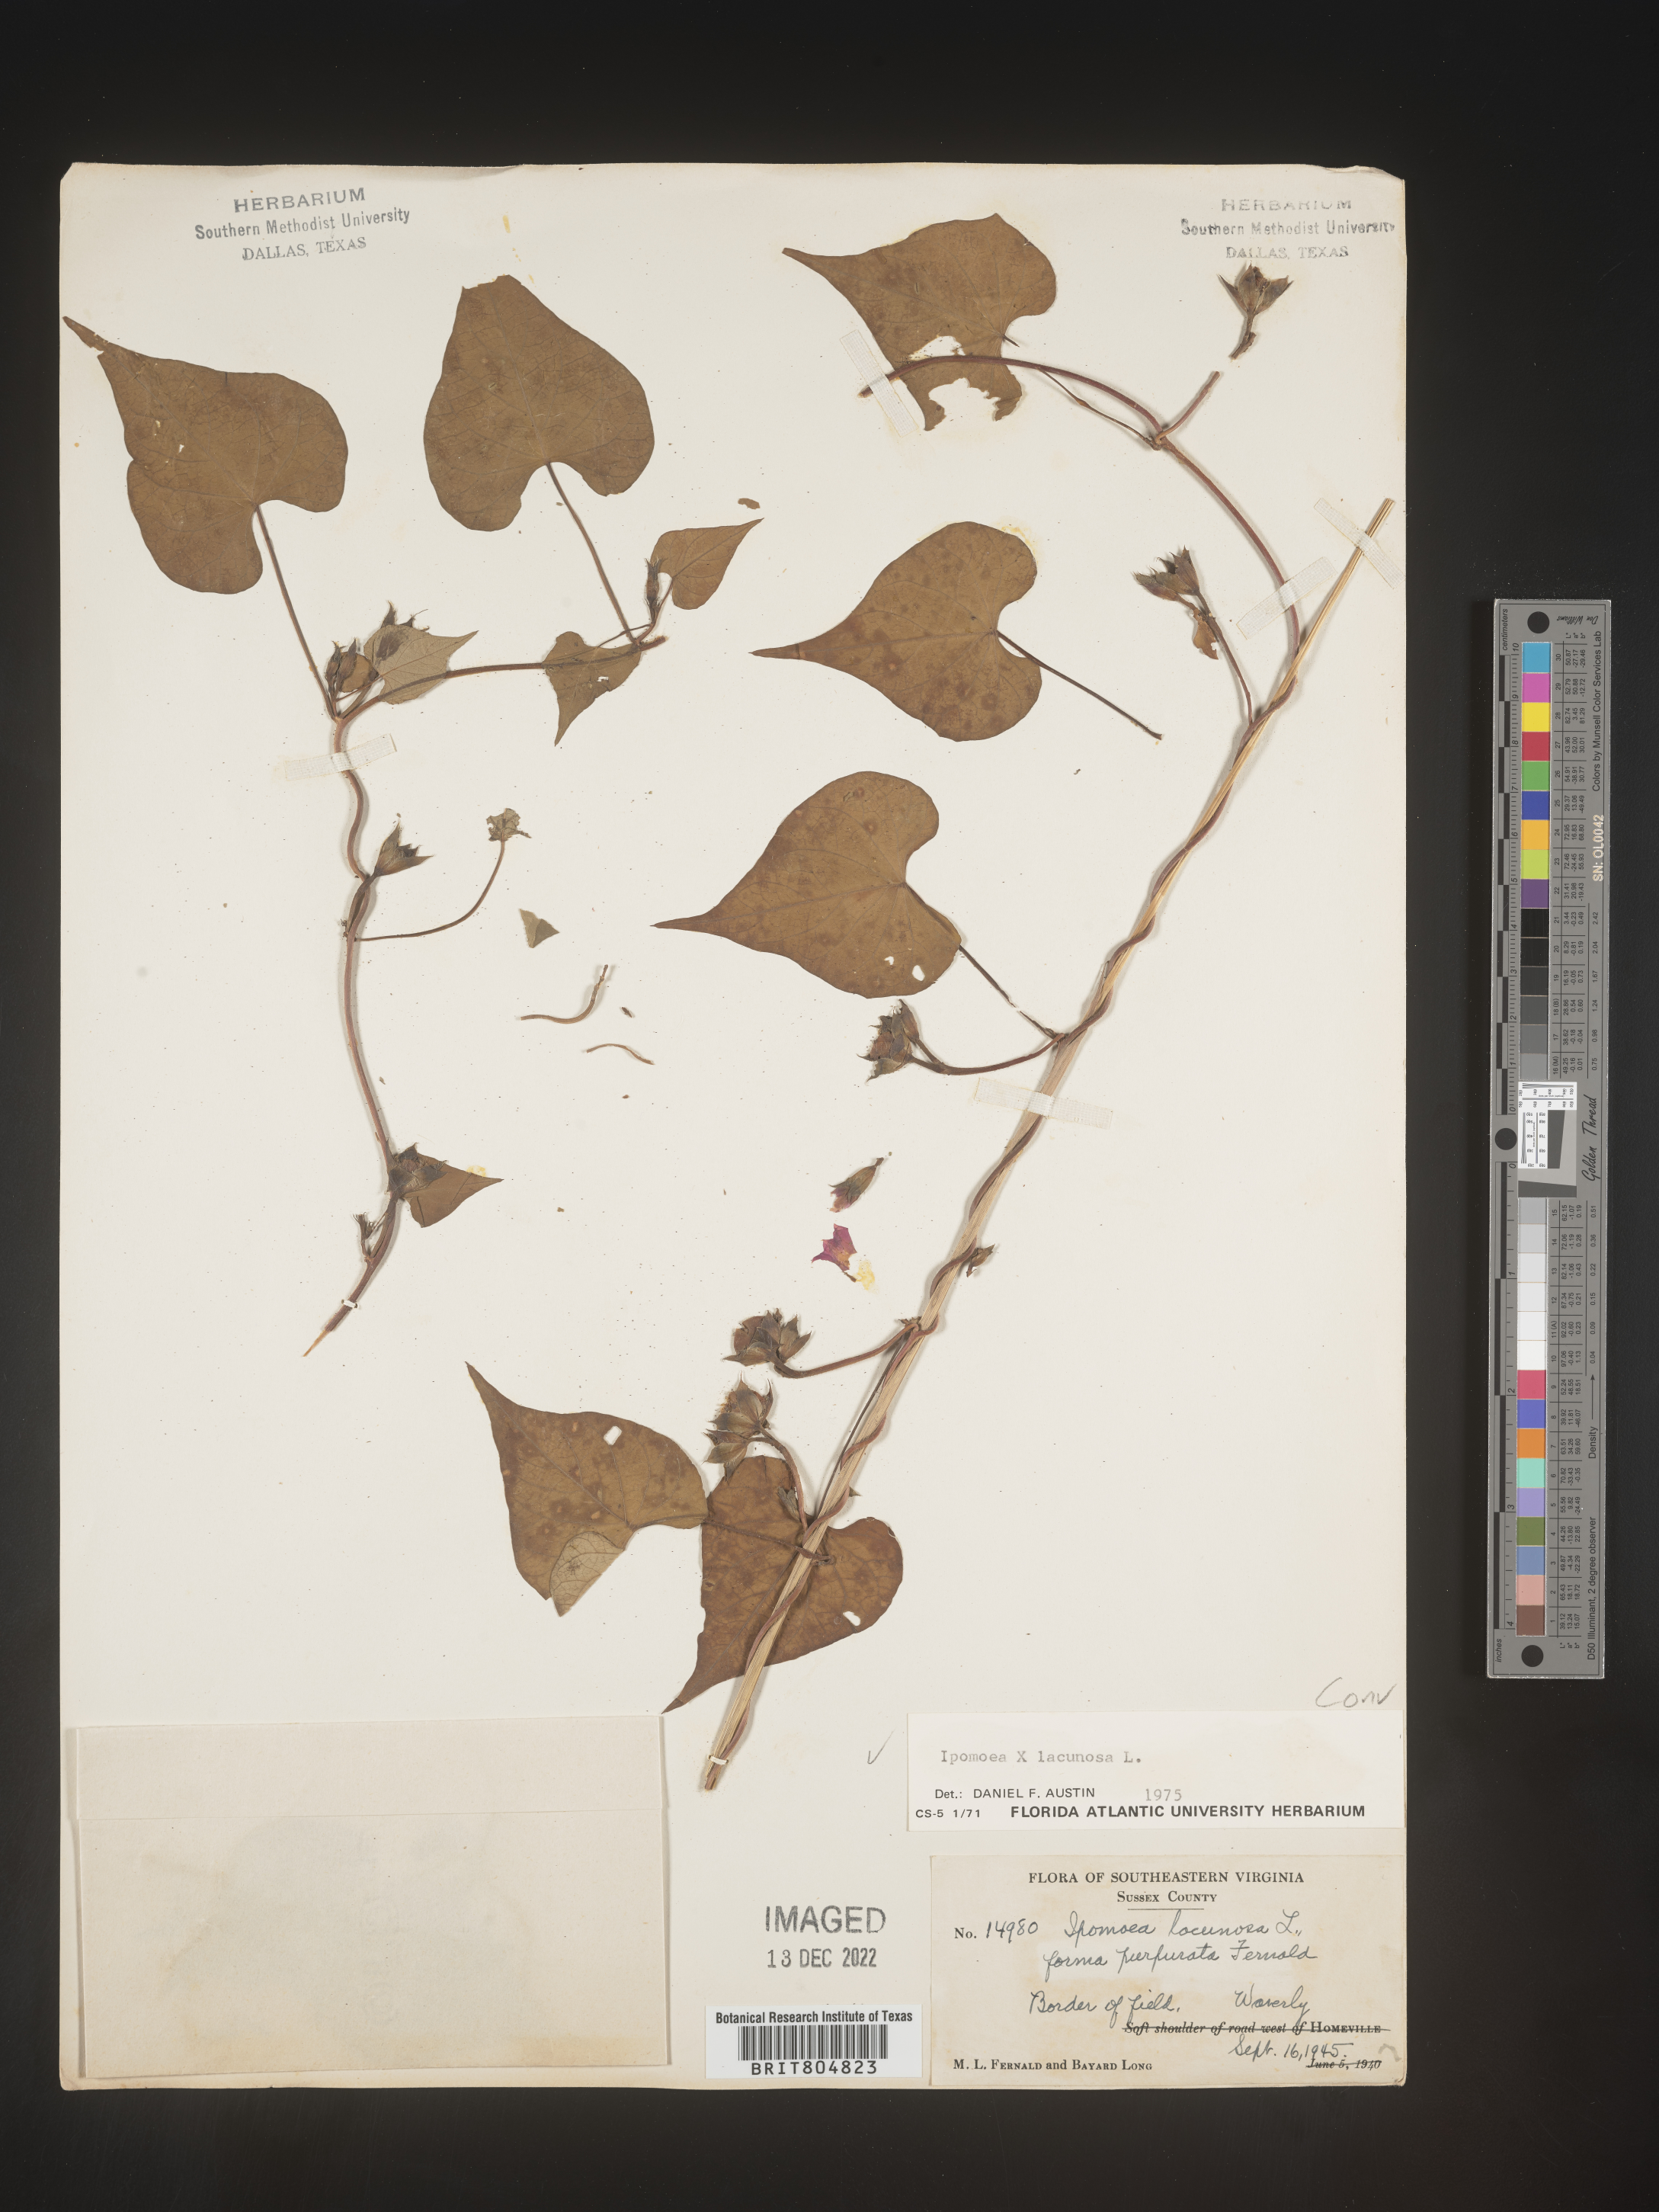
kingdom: Plantae
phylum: Tracheophyta
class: Magnoliopsida
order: Solanales
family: Convolvulaceae
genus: Ipomoea
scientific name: Ipomoea lacunosa
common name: White morning-glory
